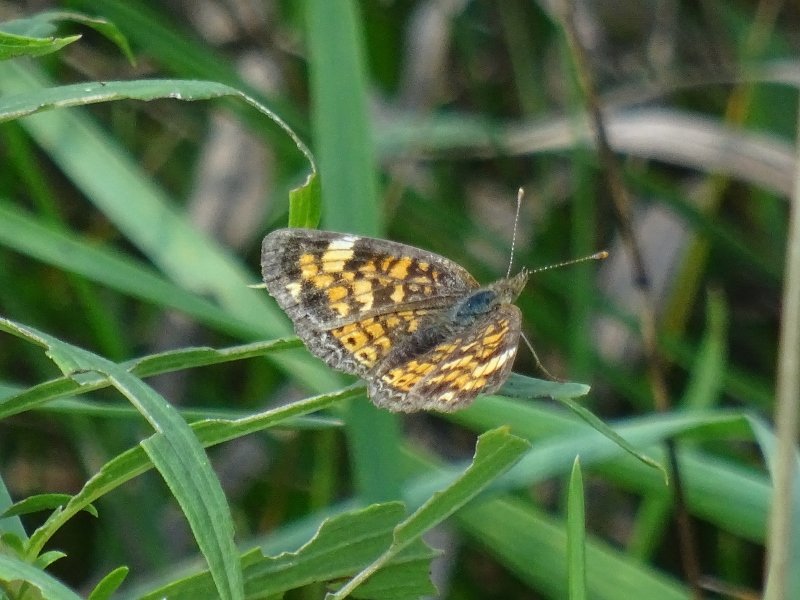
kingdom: Animalia
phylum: Arthropoda
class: Insecta
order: Lepidoptera
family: Nymphalidae
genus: Phyciodes
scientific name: Phyciodes tharos
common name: Pearl Crescent
